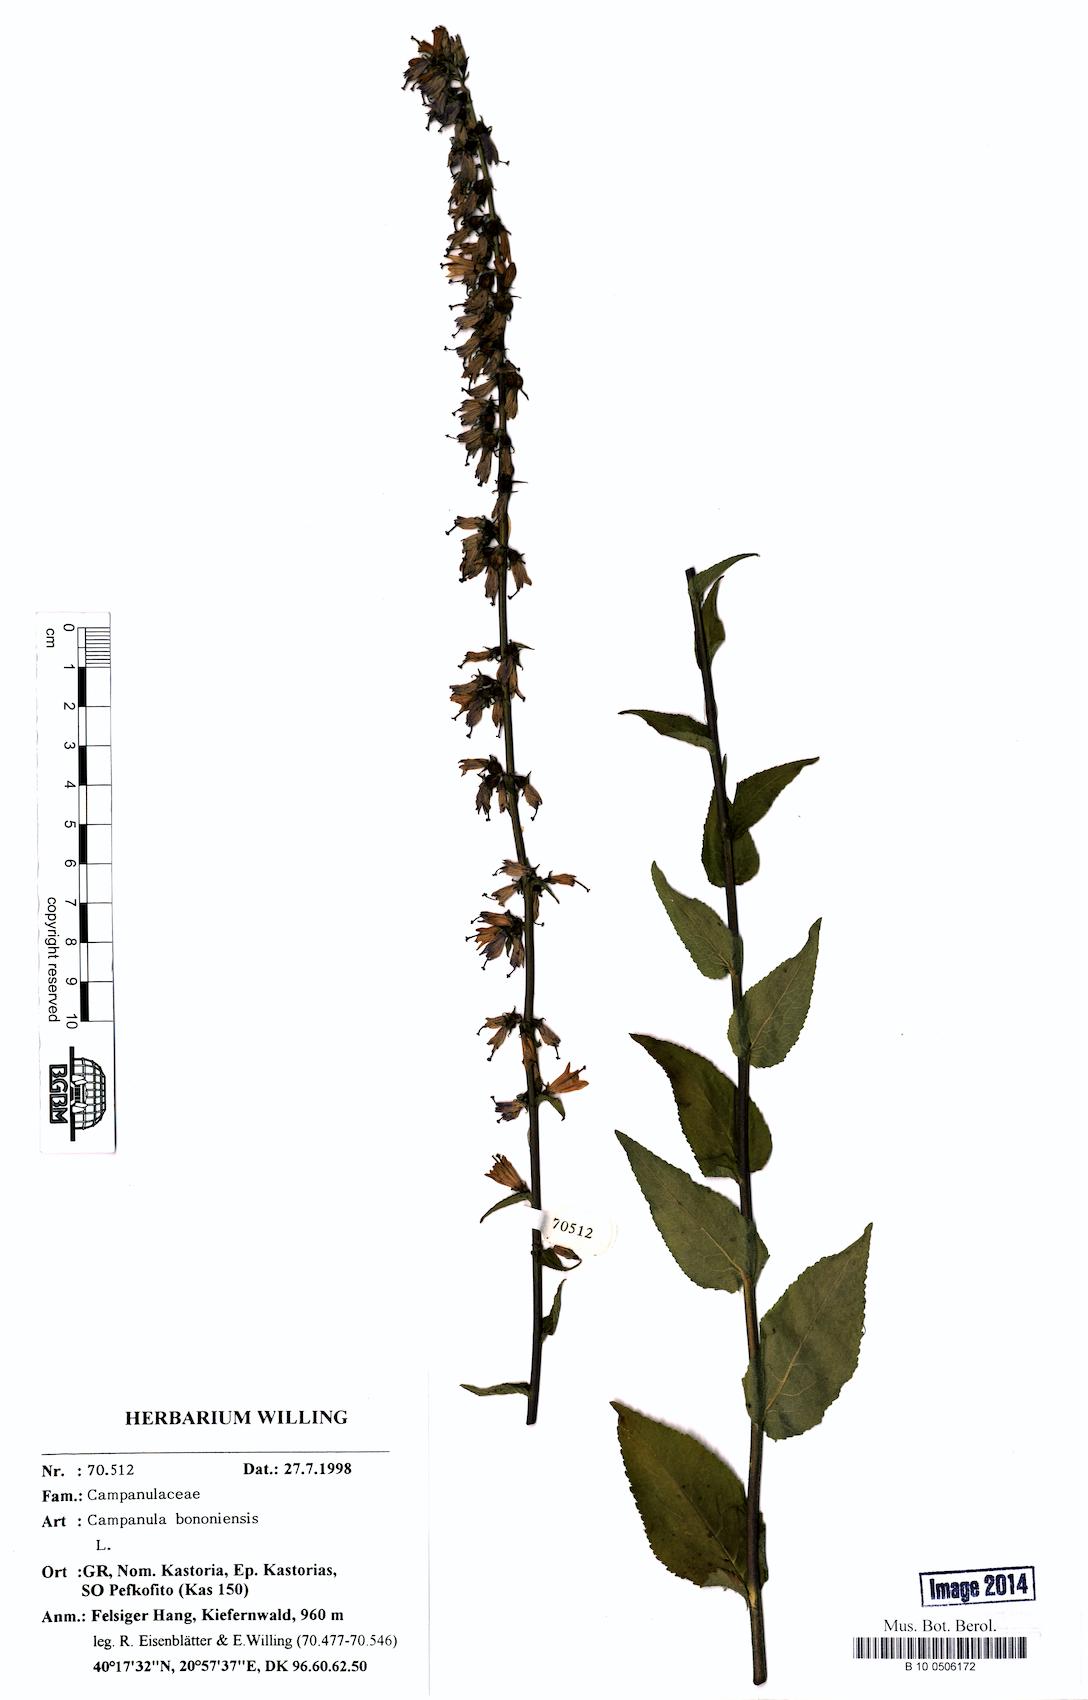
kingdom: Plantae
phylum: Tracheophyta
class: Magnoliopsida
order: Asterales
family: Campanulaceae
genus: Campanula
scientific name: Campanula bononiensis
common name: Pale bellflower
